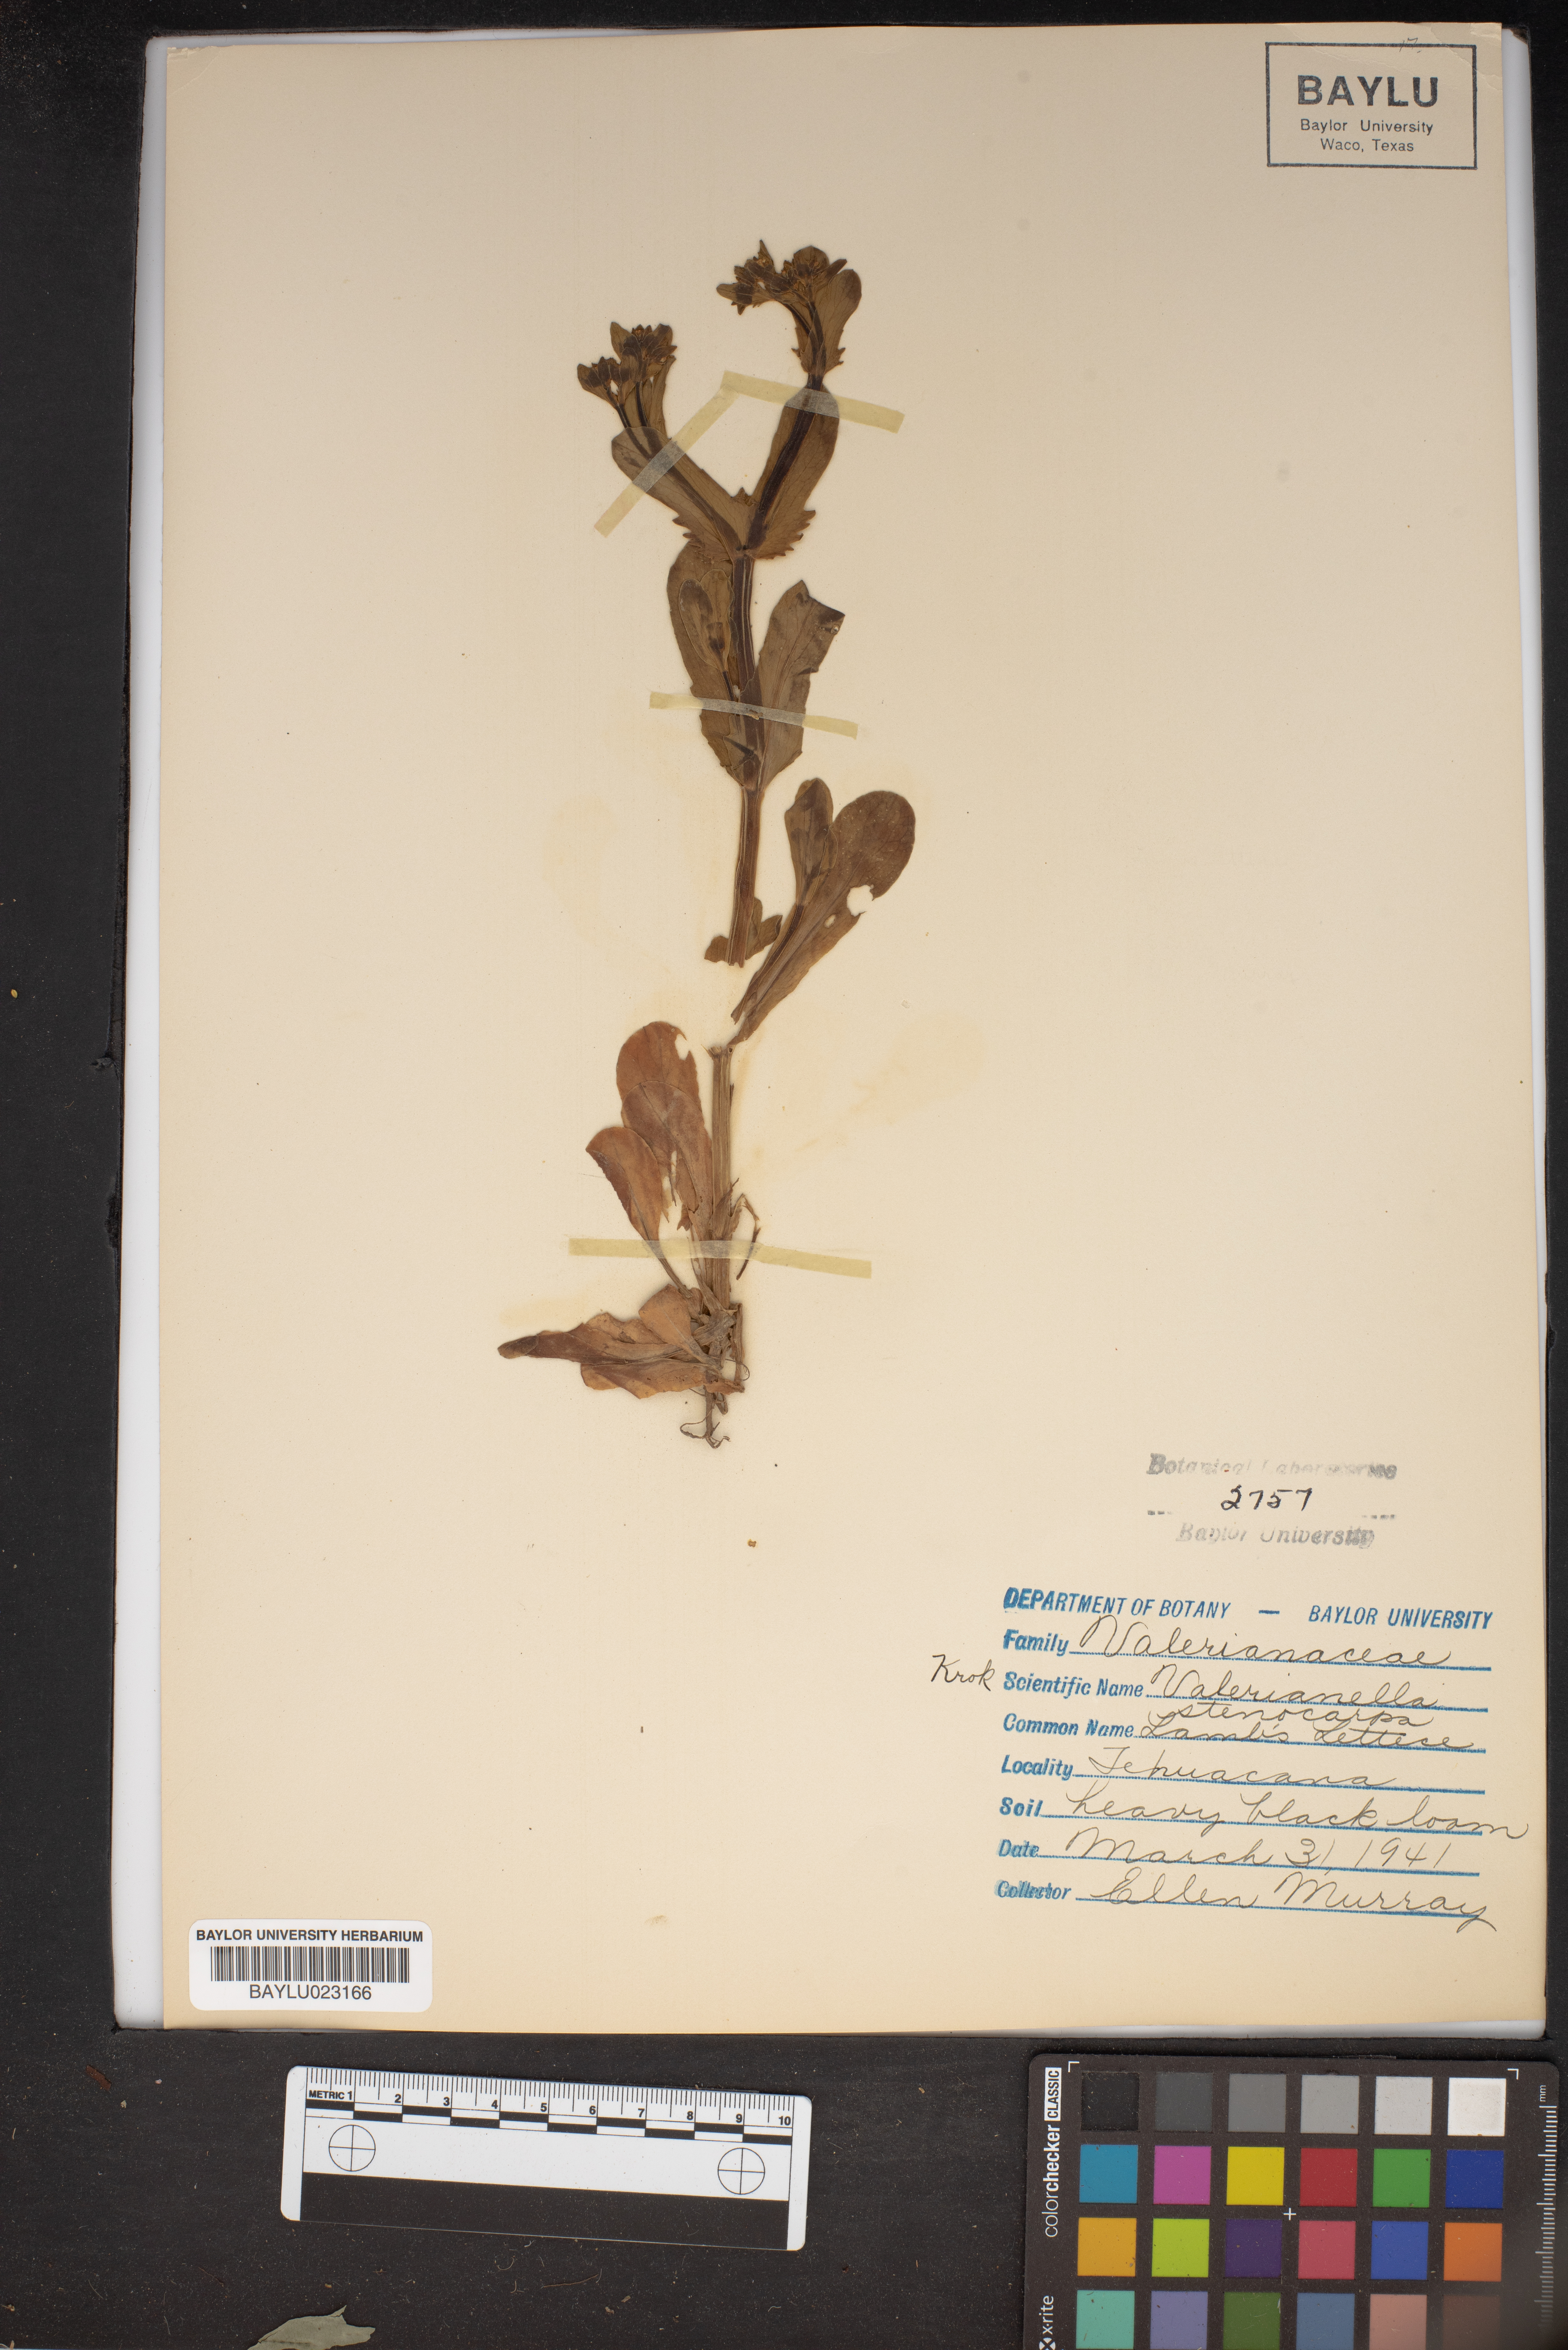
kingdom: Plantae
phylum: Tracheophyta
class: Magnoliopsida
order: Dipsacales
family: Caprifoliaceae
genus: Valerianella
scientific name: Valerianella stenocarpa
